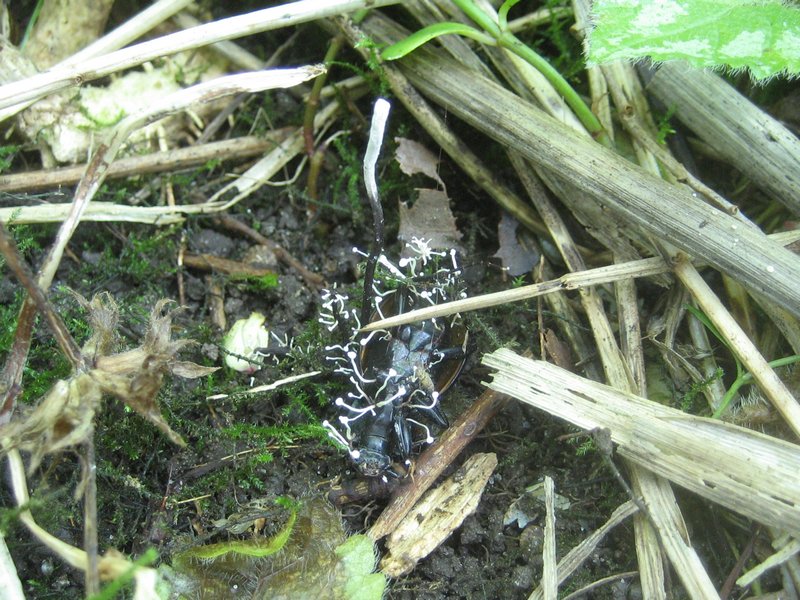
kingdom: Fungi
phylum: Ascomycota
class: Sordariomycetes
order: Hypocreales
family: Ophiocordycipitaceae
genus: Ophiocordyceps
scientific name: Ophiocordyceps entomorrhiza
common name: grå snyltekølle
